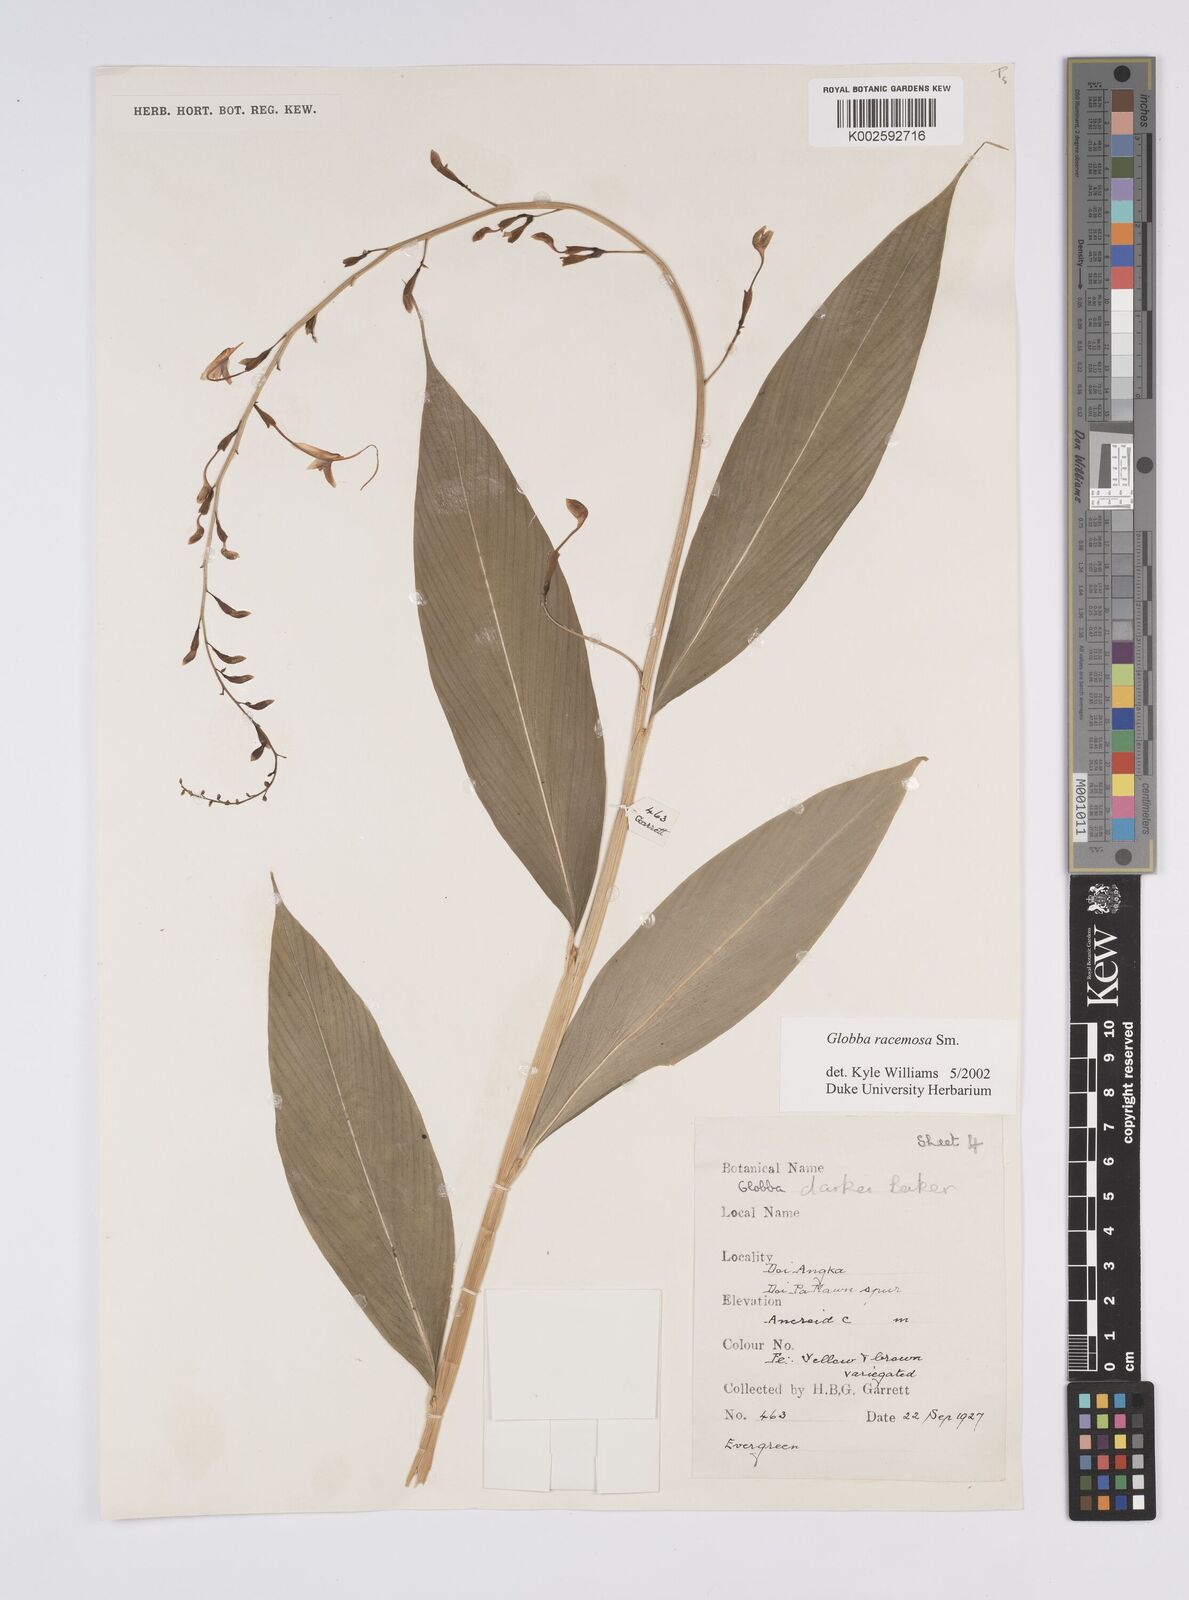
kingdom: Plantae
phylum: Tracheophyta
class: Liliopsida
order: Zingiberales
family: Zingiberaceae
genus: Globba
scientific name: Globba racemosa
